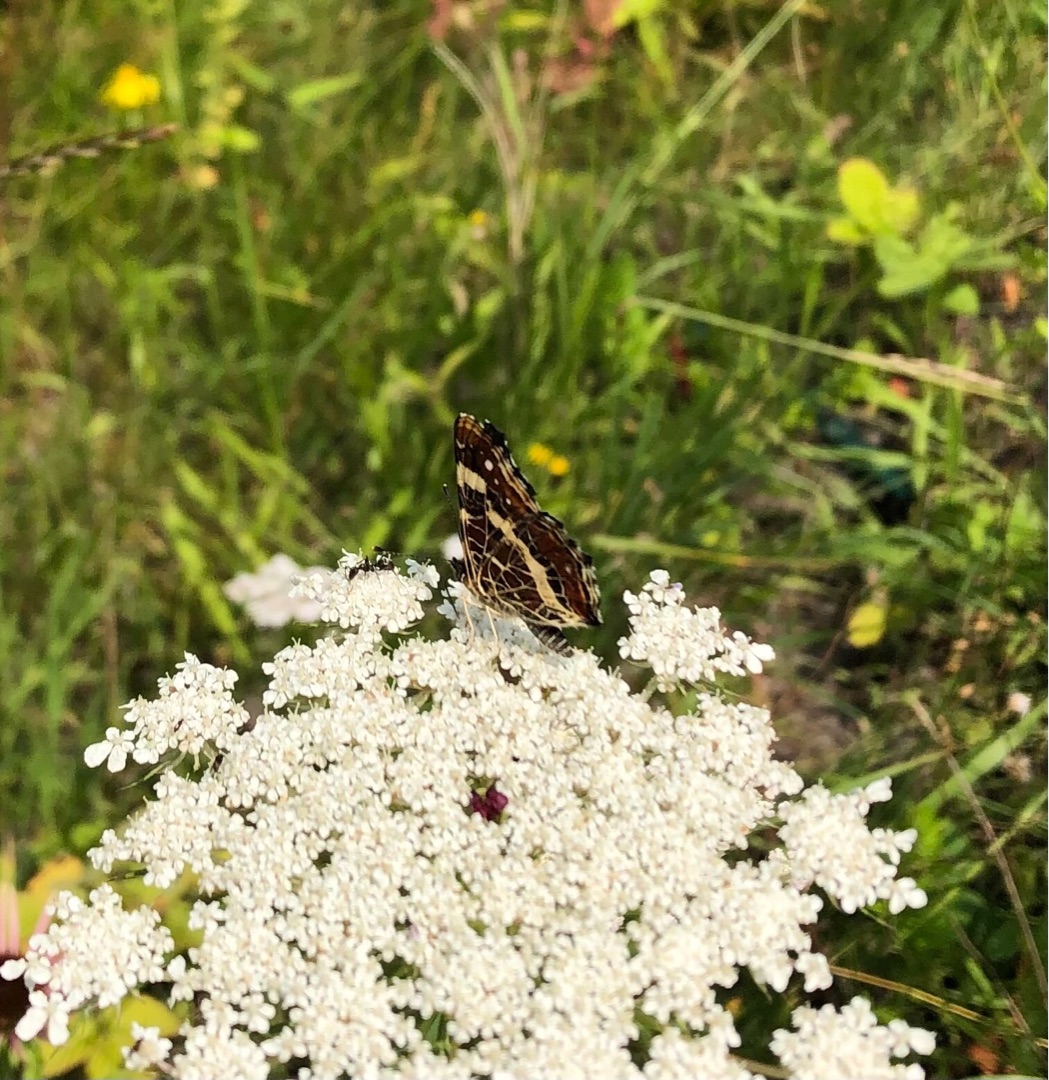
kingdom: Animalia
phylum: Arthropoda
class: Insecta
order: Lepidoptera
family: Nymphalidae
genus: Araschnia
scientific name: Araschnia levana
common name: Nældesommerfugl
